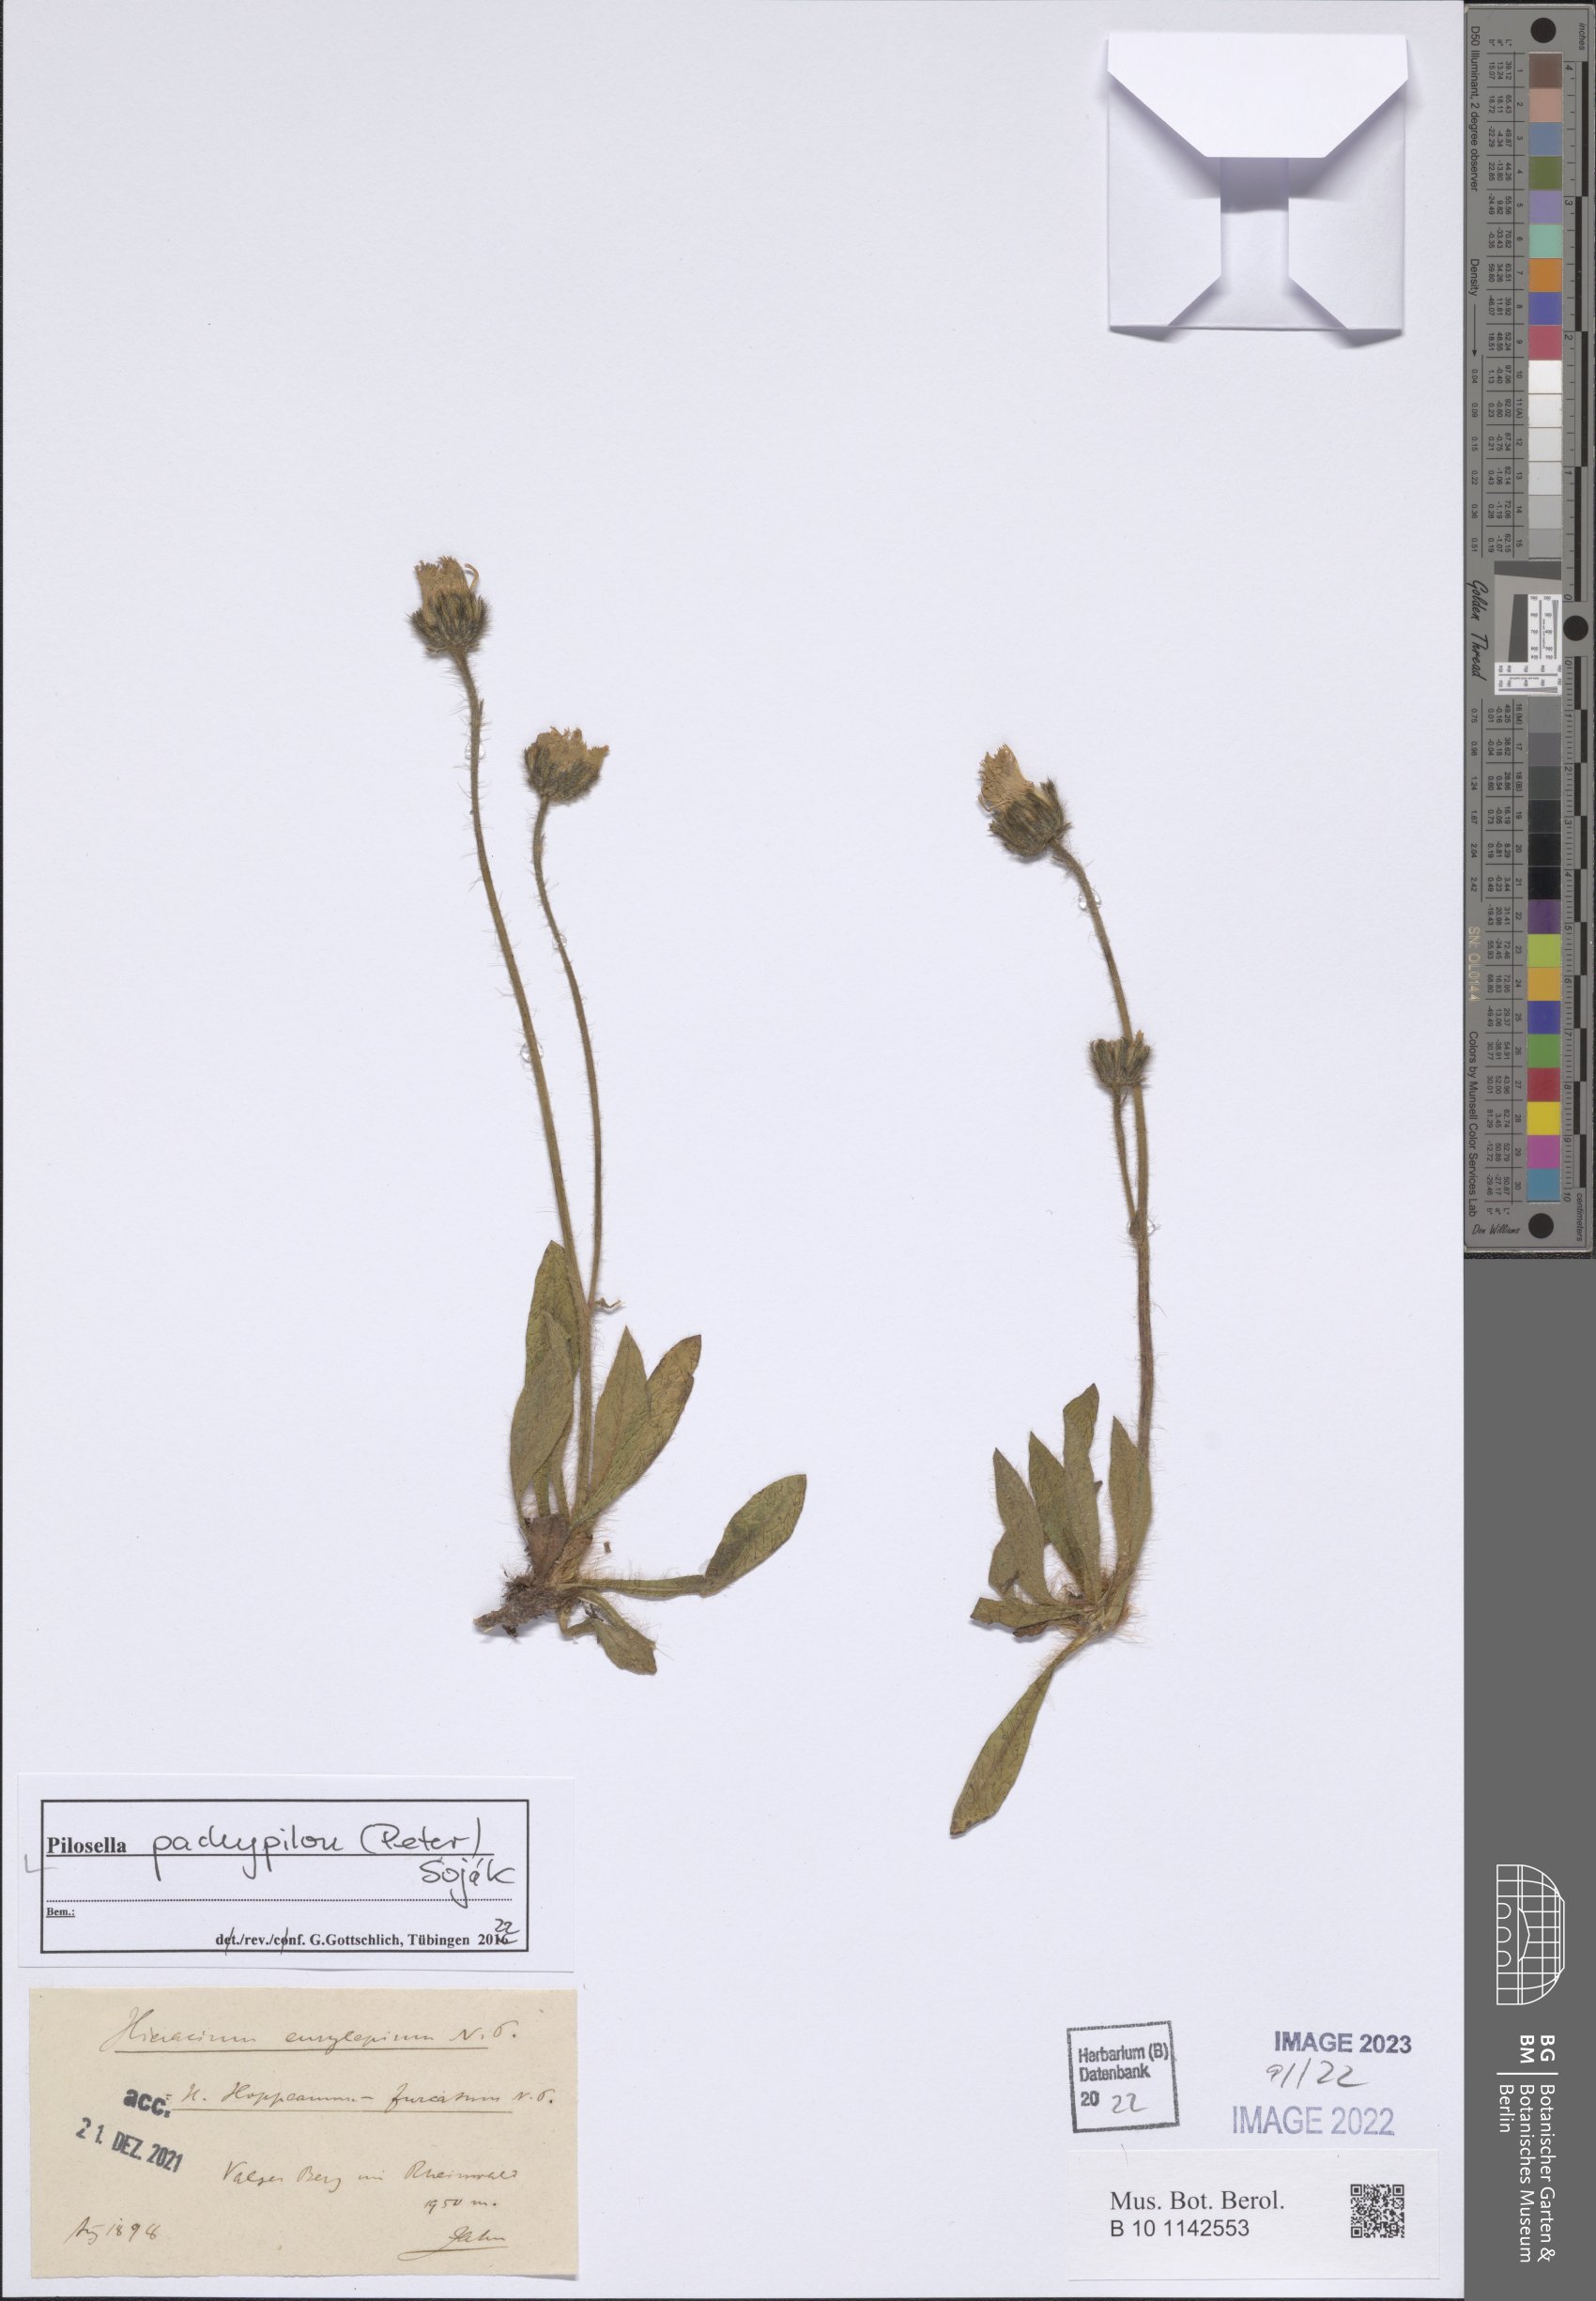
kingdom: Plantae
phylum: Tracheophyta
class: Magnoliopsida
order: Asterales
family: Asteraceae
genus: Pilosella
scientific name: Pilosella pachypila
